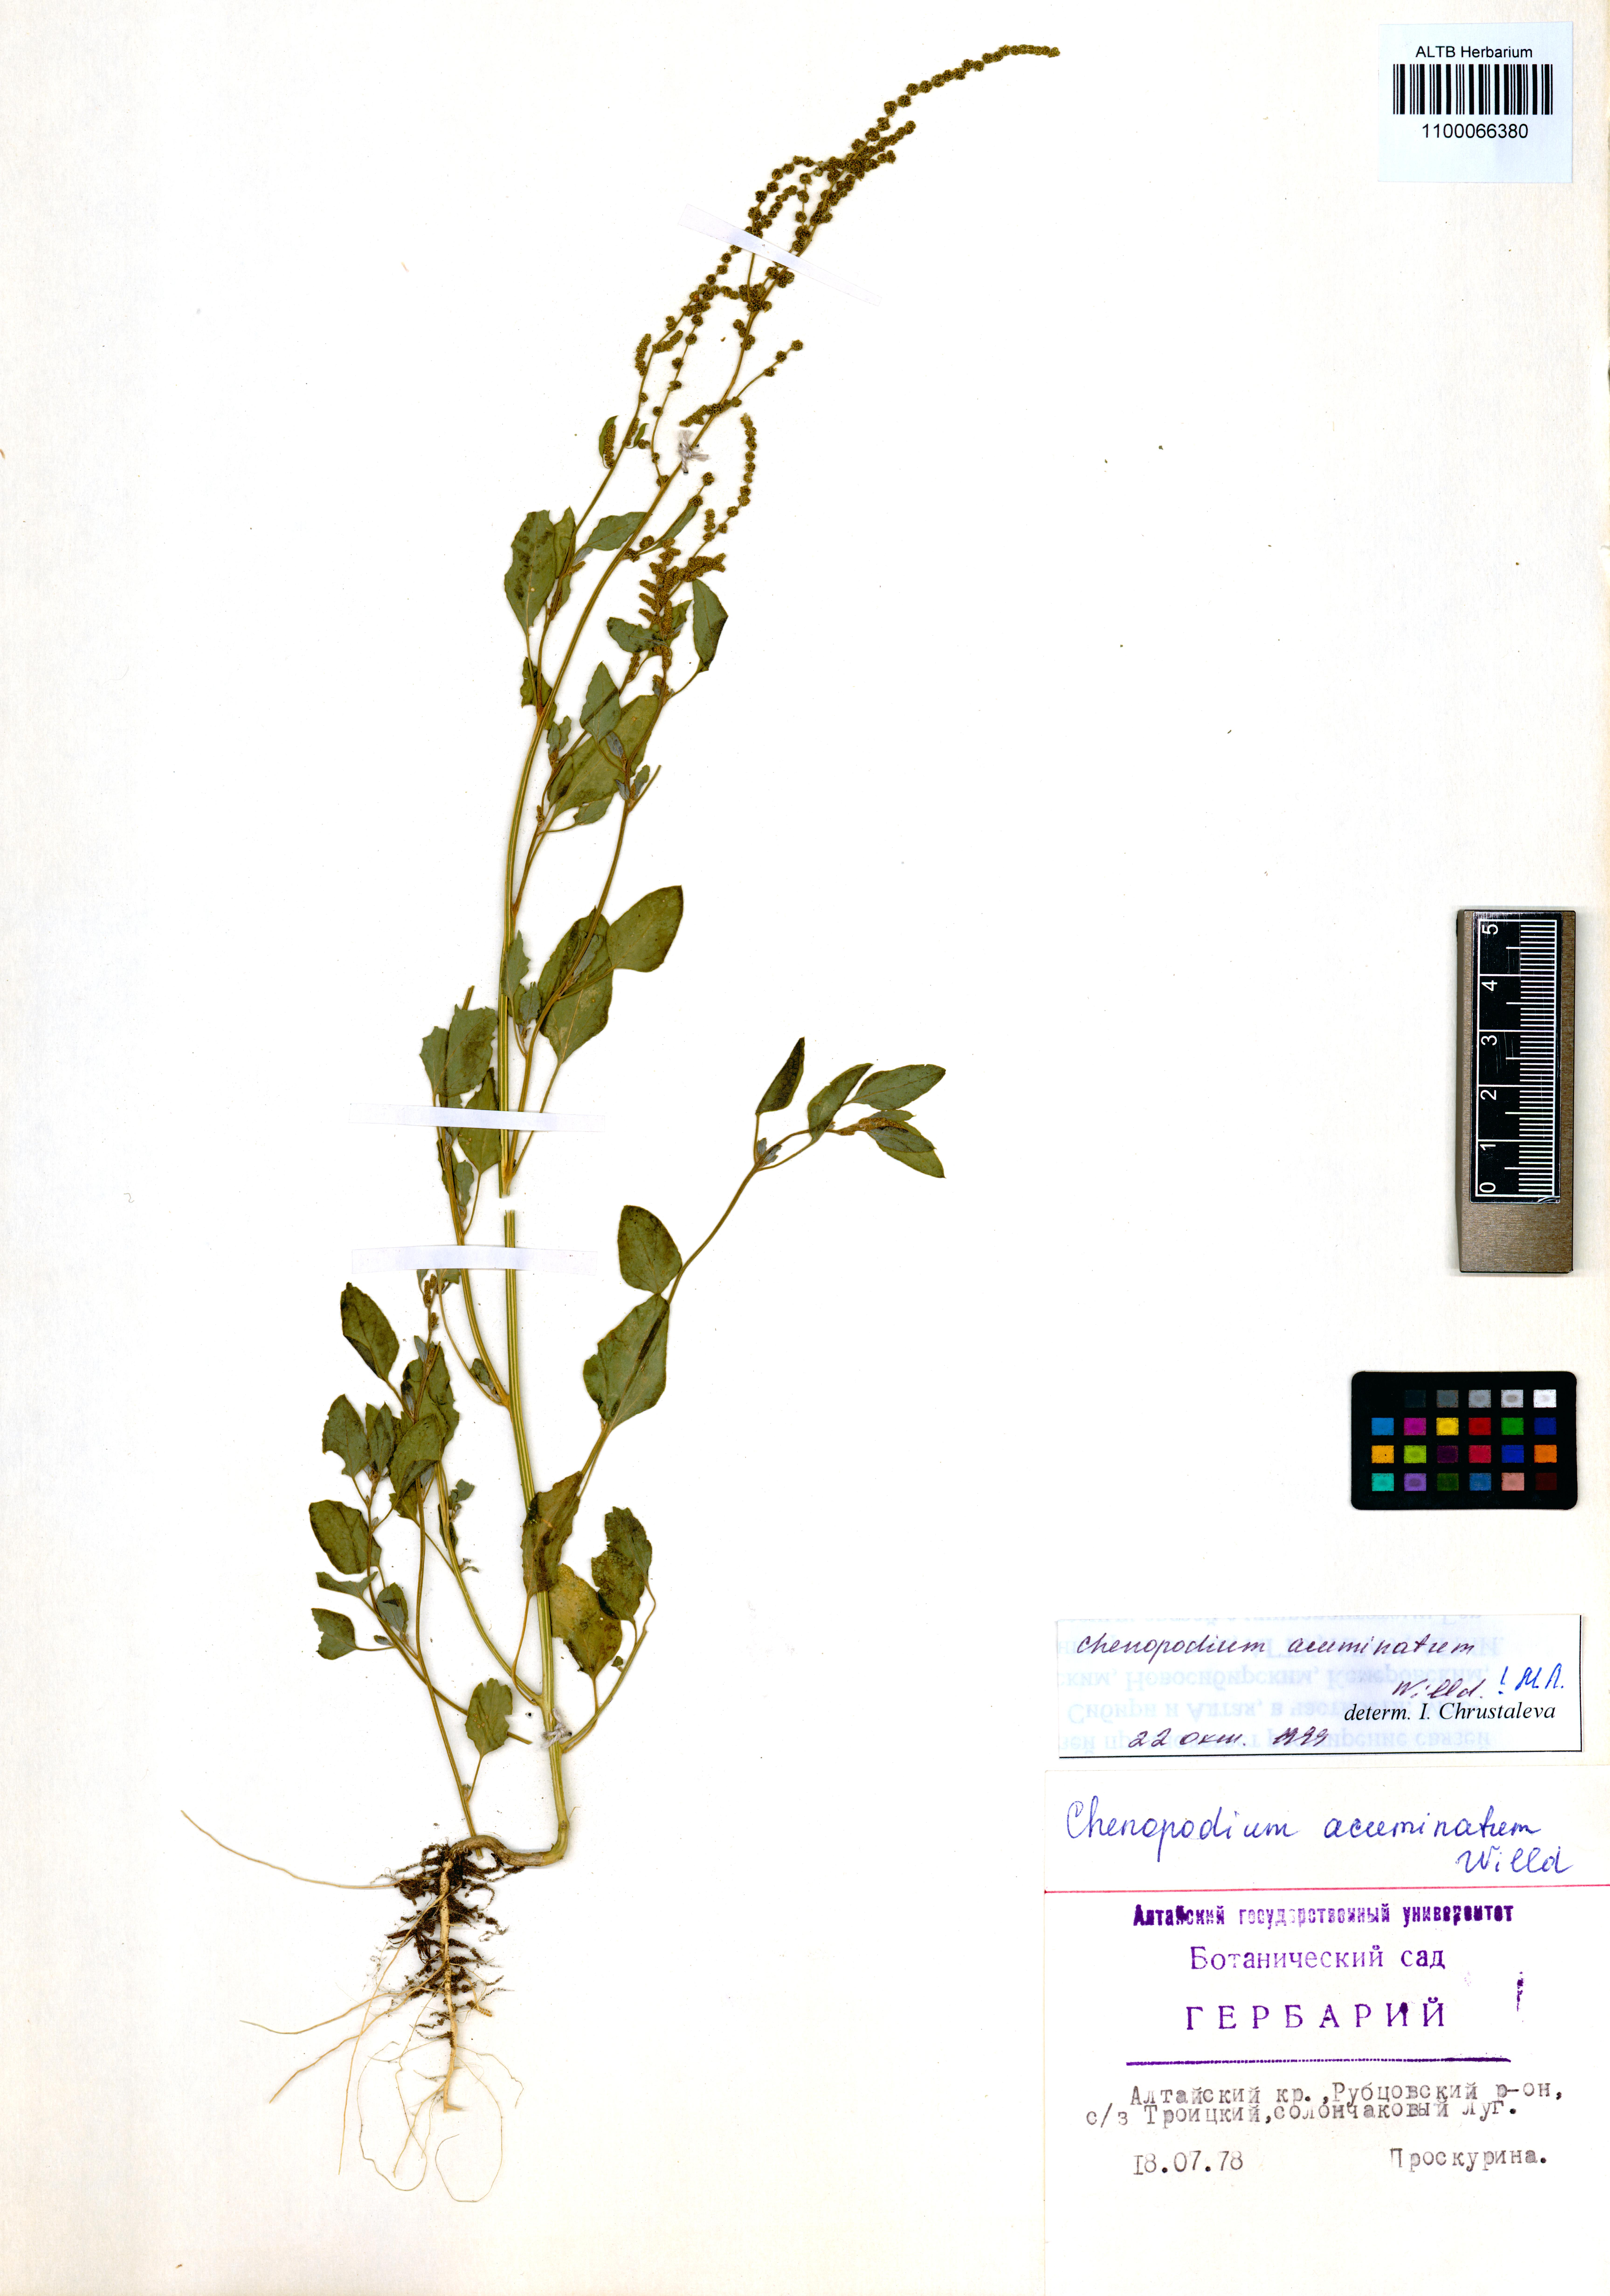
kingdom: Plantae
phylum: Tracheophyta
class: Magnoliopsida
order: Caryophyllales
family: Amaranthaceae
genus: Chenopodium
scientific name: Chenopodium acuminatum
